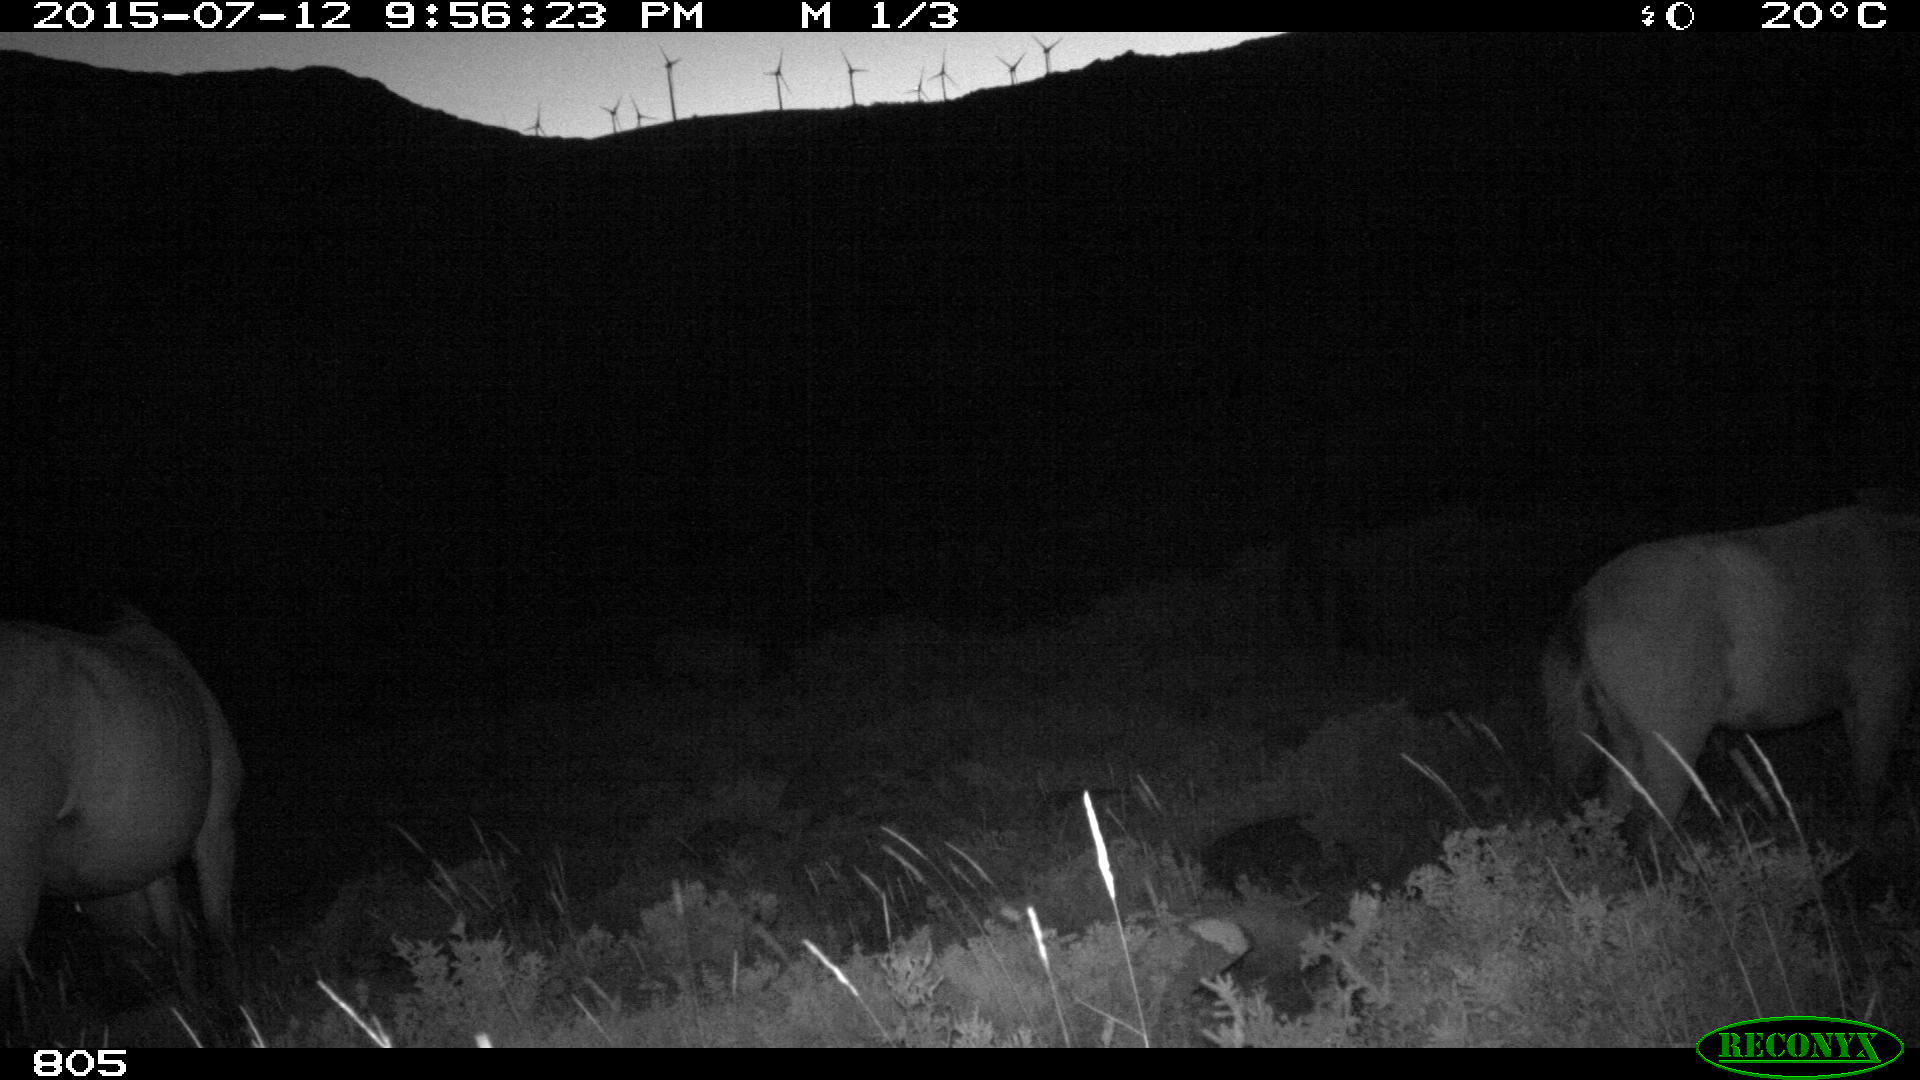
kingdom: Animalia
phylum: Chordata
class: Mammalia
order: Perissodactyla
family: Equidae
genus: Equus
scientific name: Equus caballus
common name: Horse
